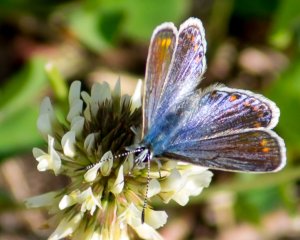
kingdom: Animalia
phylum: Arthropoda
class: Insecta
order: Lepidoptera
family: Lycaenidae
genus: Polyommatus
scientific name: Polyommatus icarus
